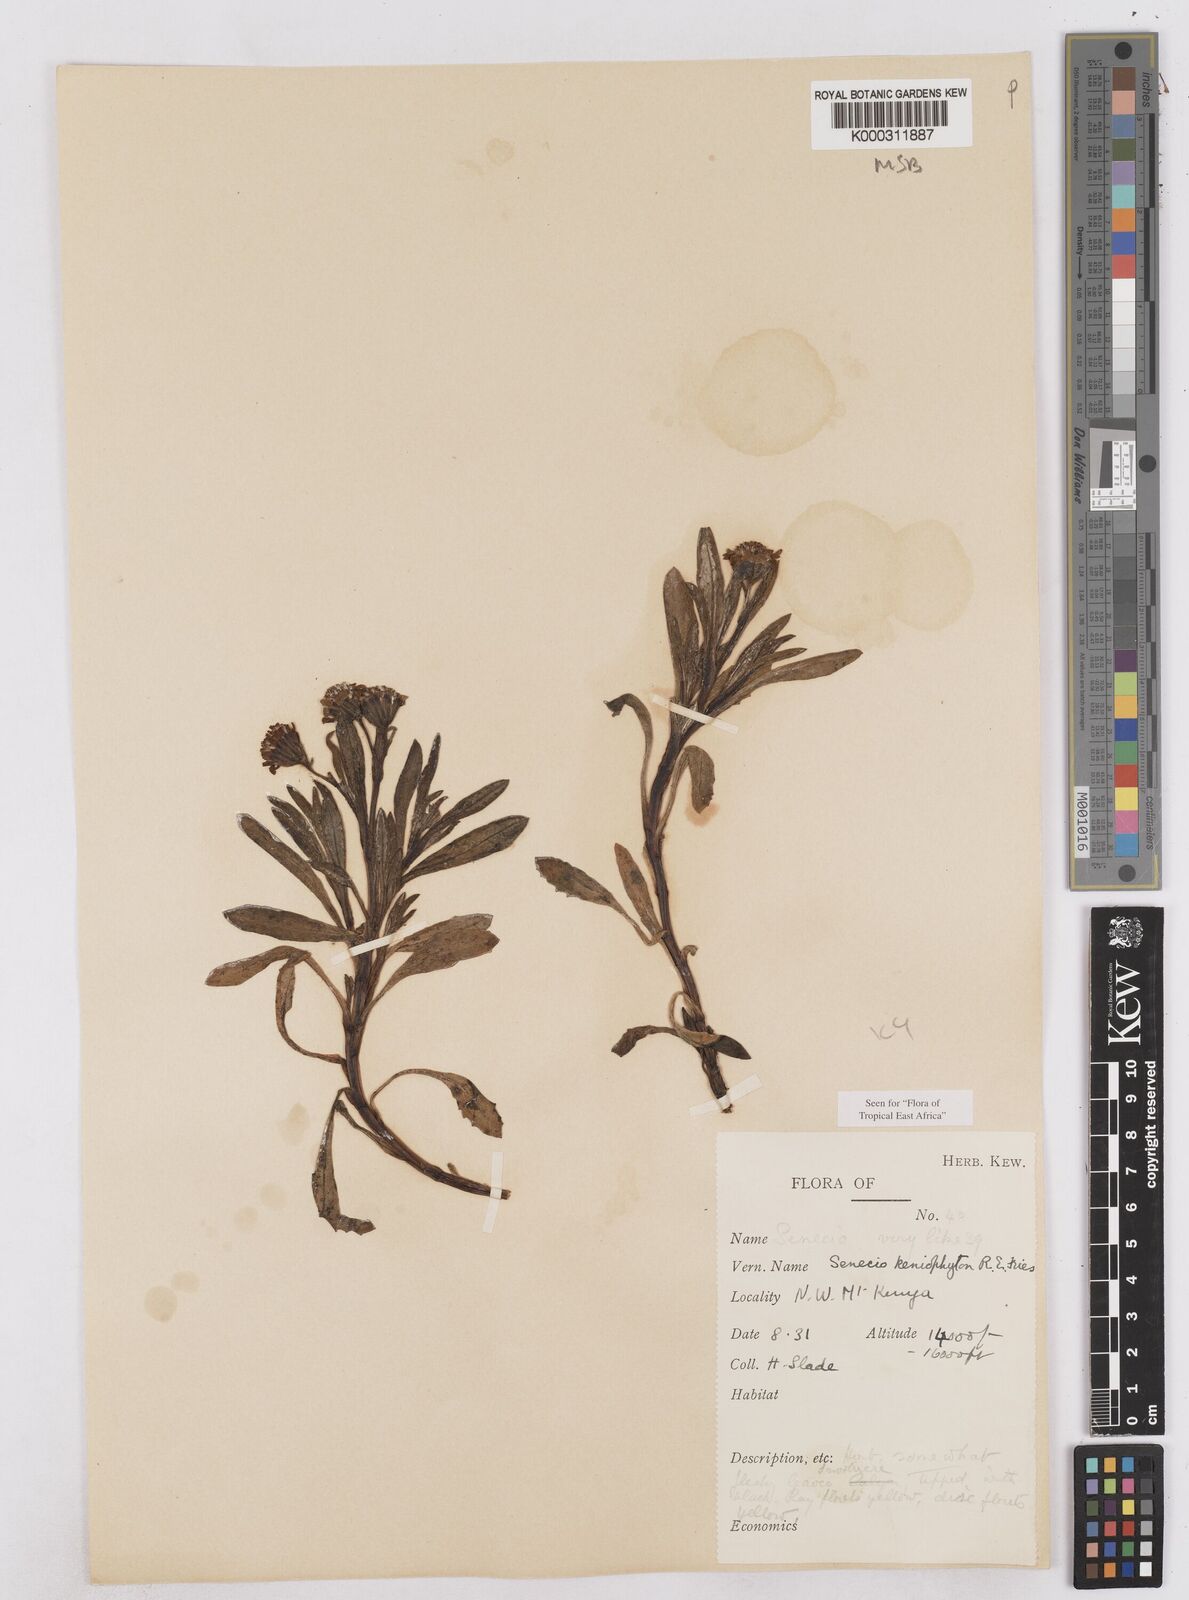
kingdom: Plantae
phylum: Tracheophyta
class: Magnoliopsida
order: Asterales
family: Asteraceae
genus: Senecio
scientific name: Senecio keniophytum
